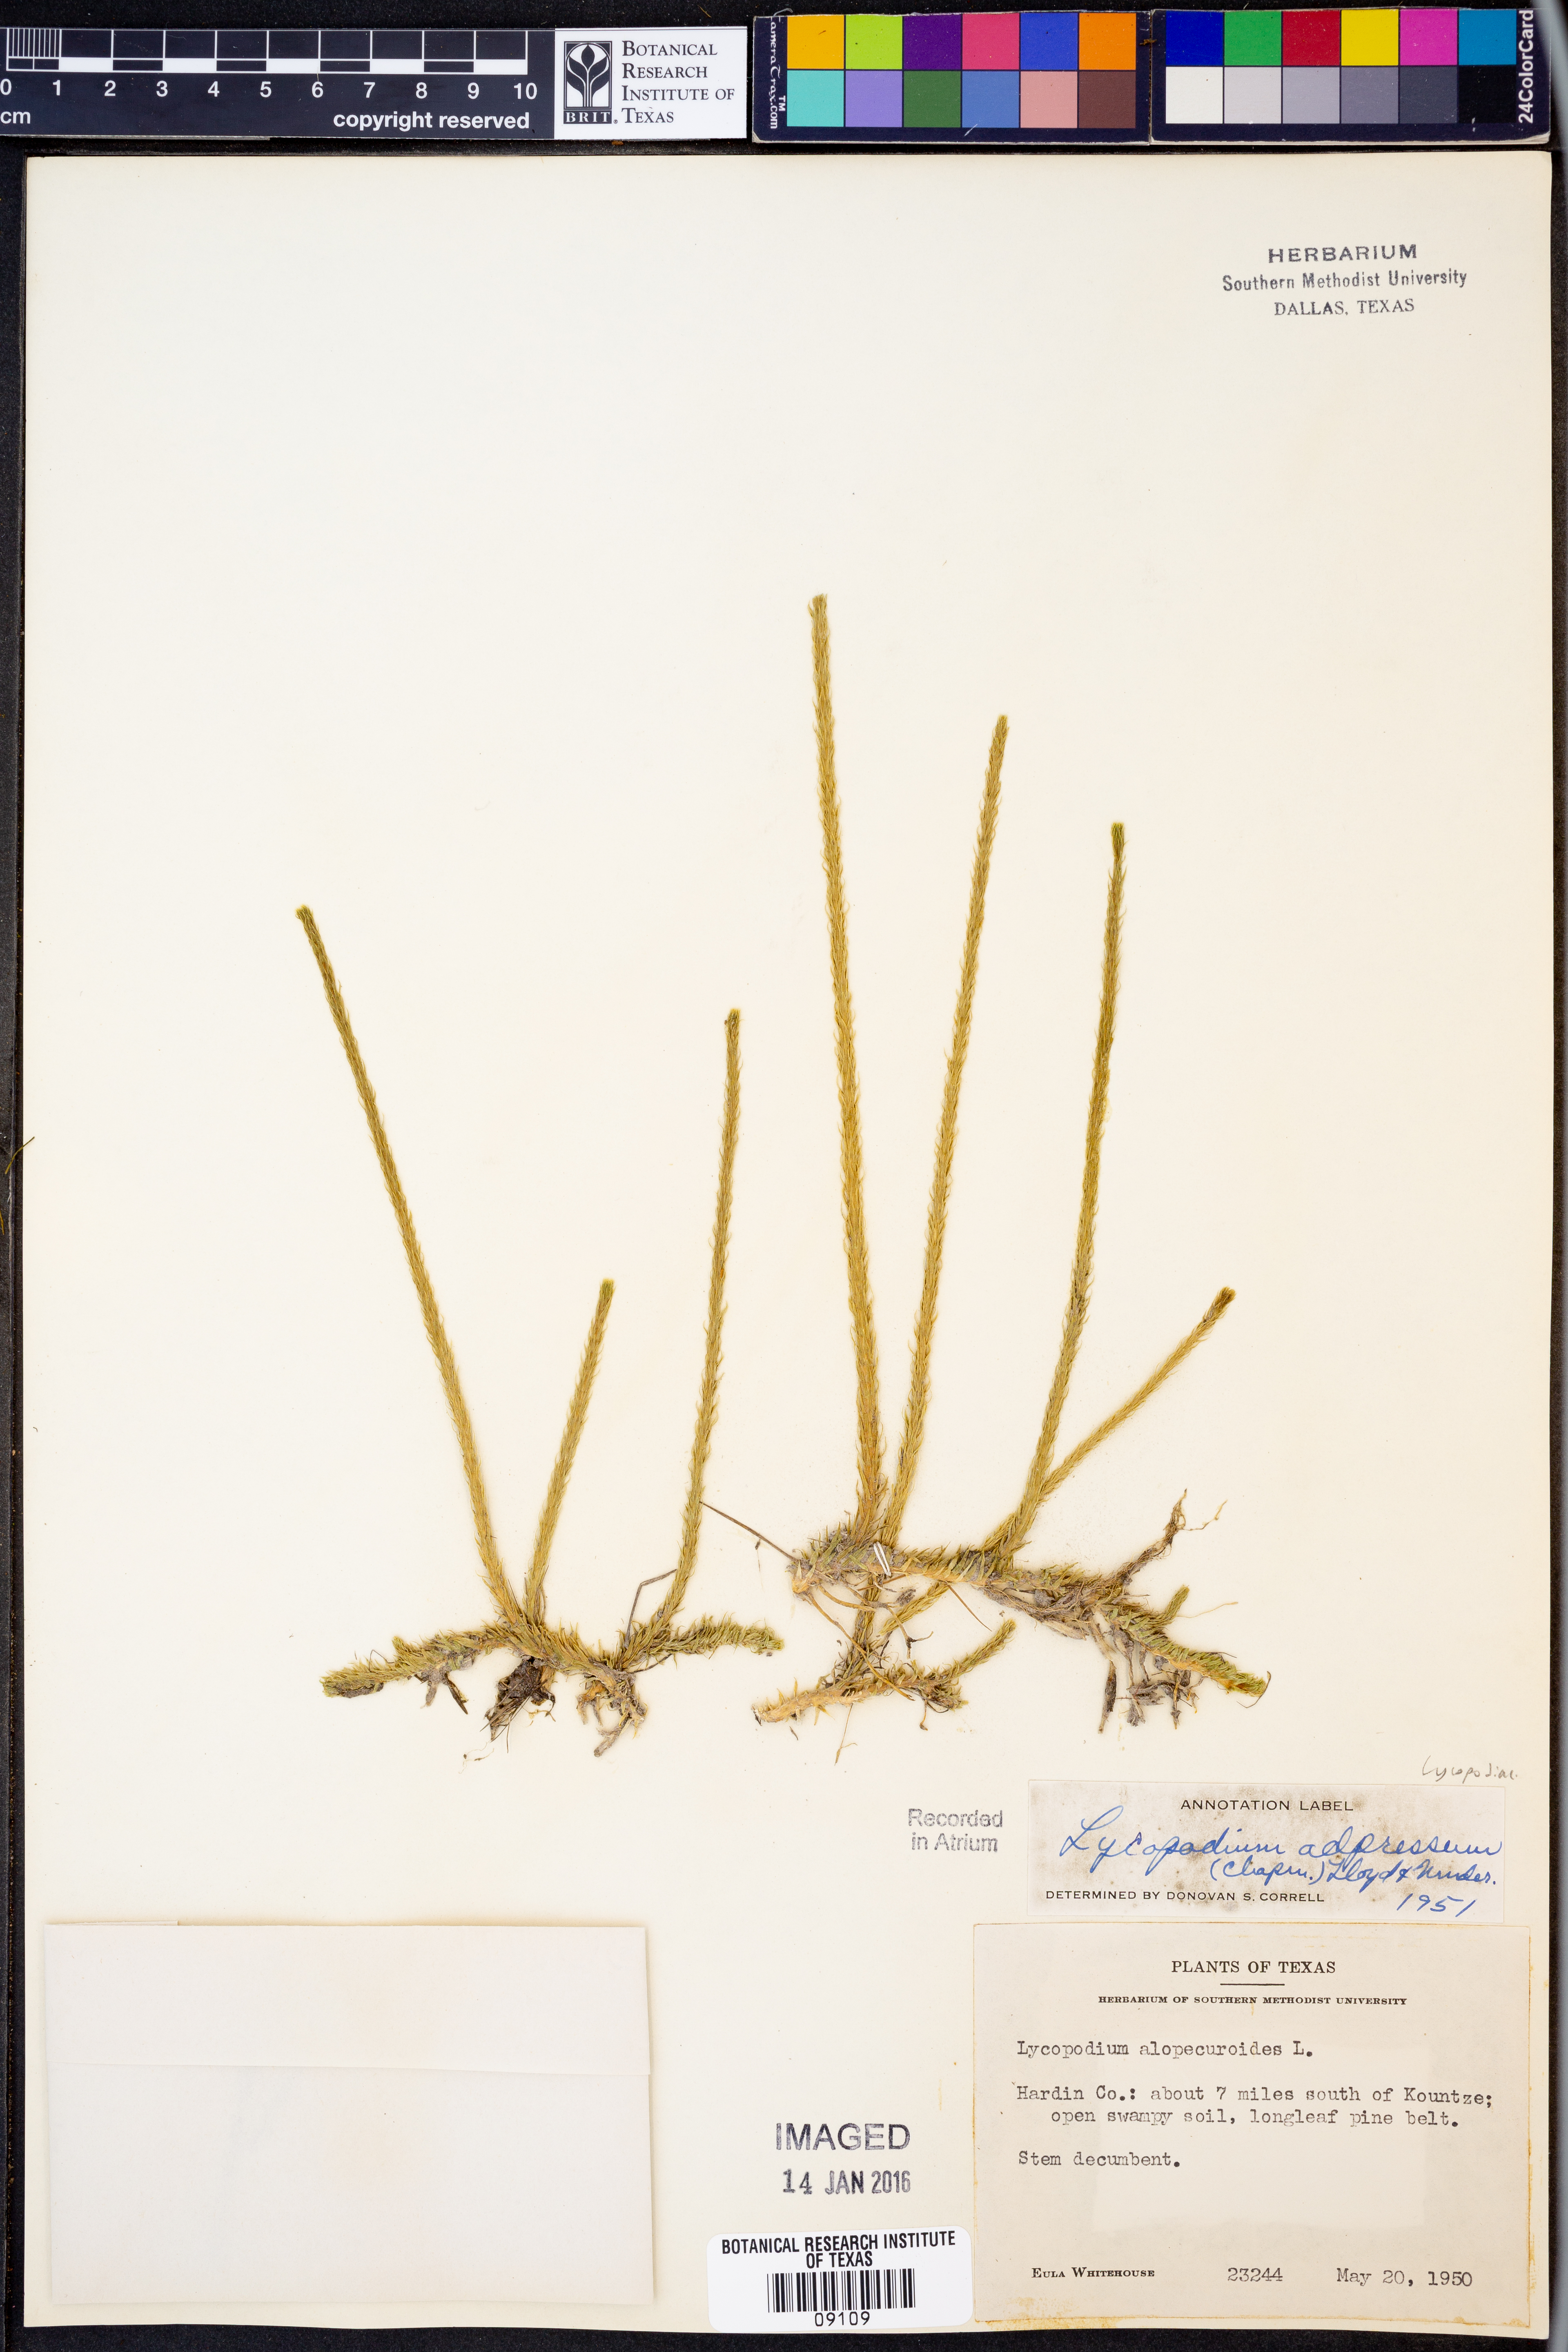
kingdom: Plantae
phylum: Tracheophyta
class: Lycopodiopsida
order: Lycopodiales
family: Lycopodiaceae
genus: Lycopodiella
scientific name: Lycopodiella appressa
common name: Appressed bog clubmoss
